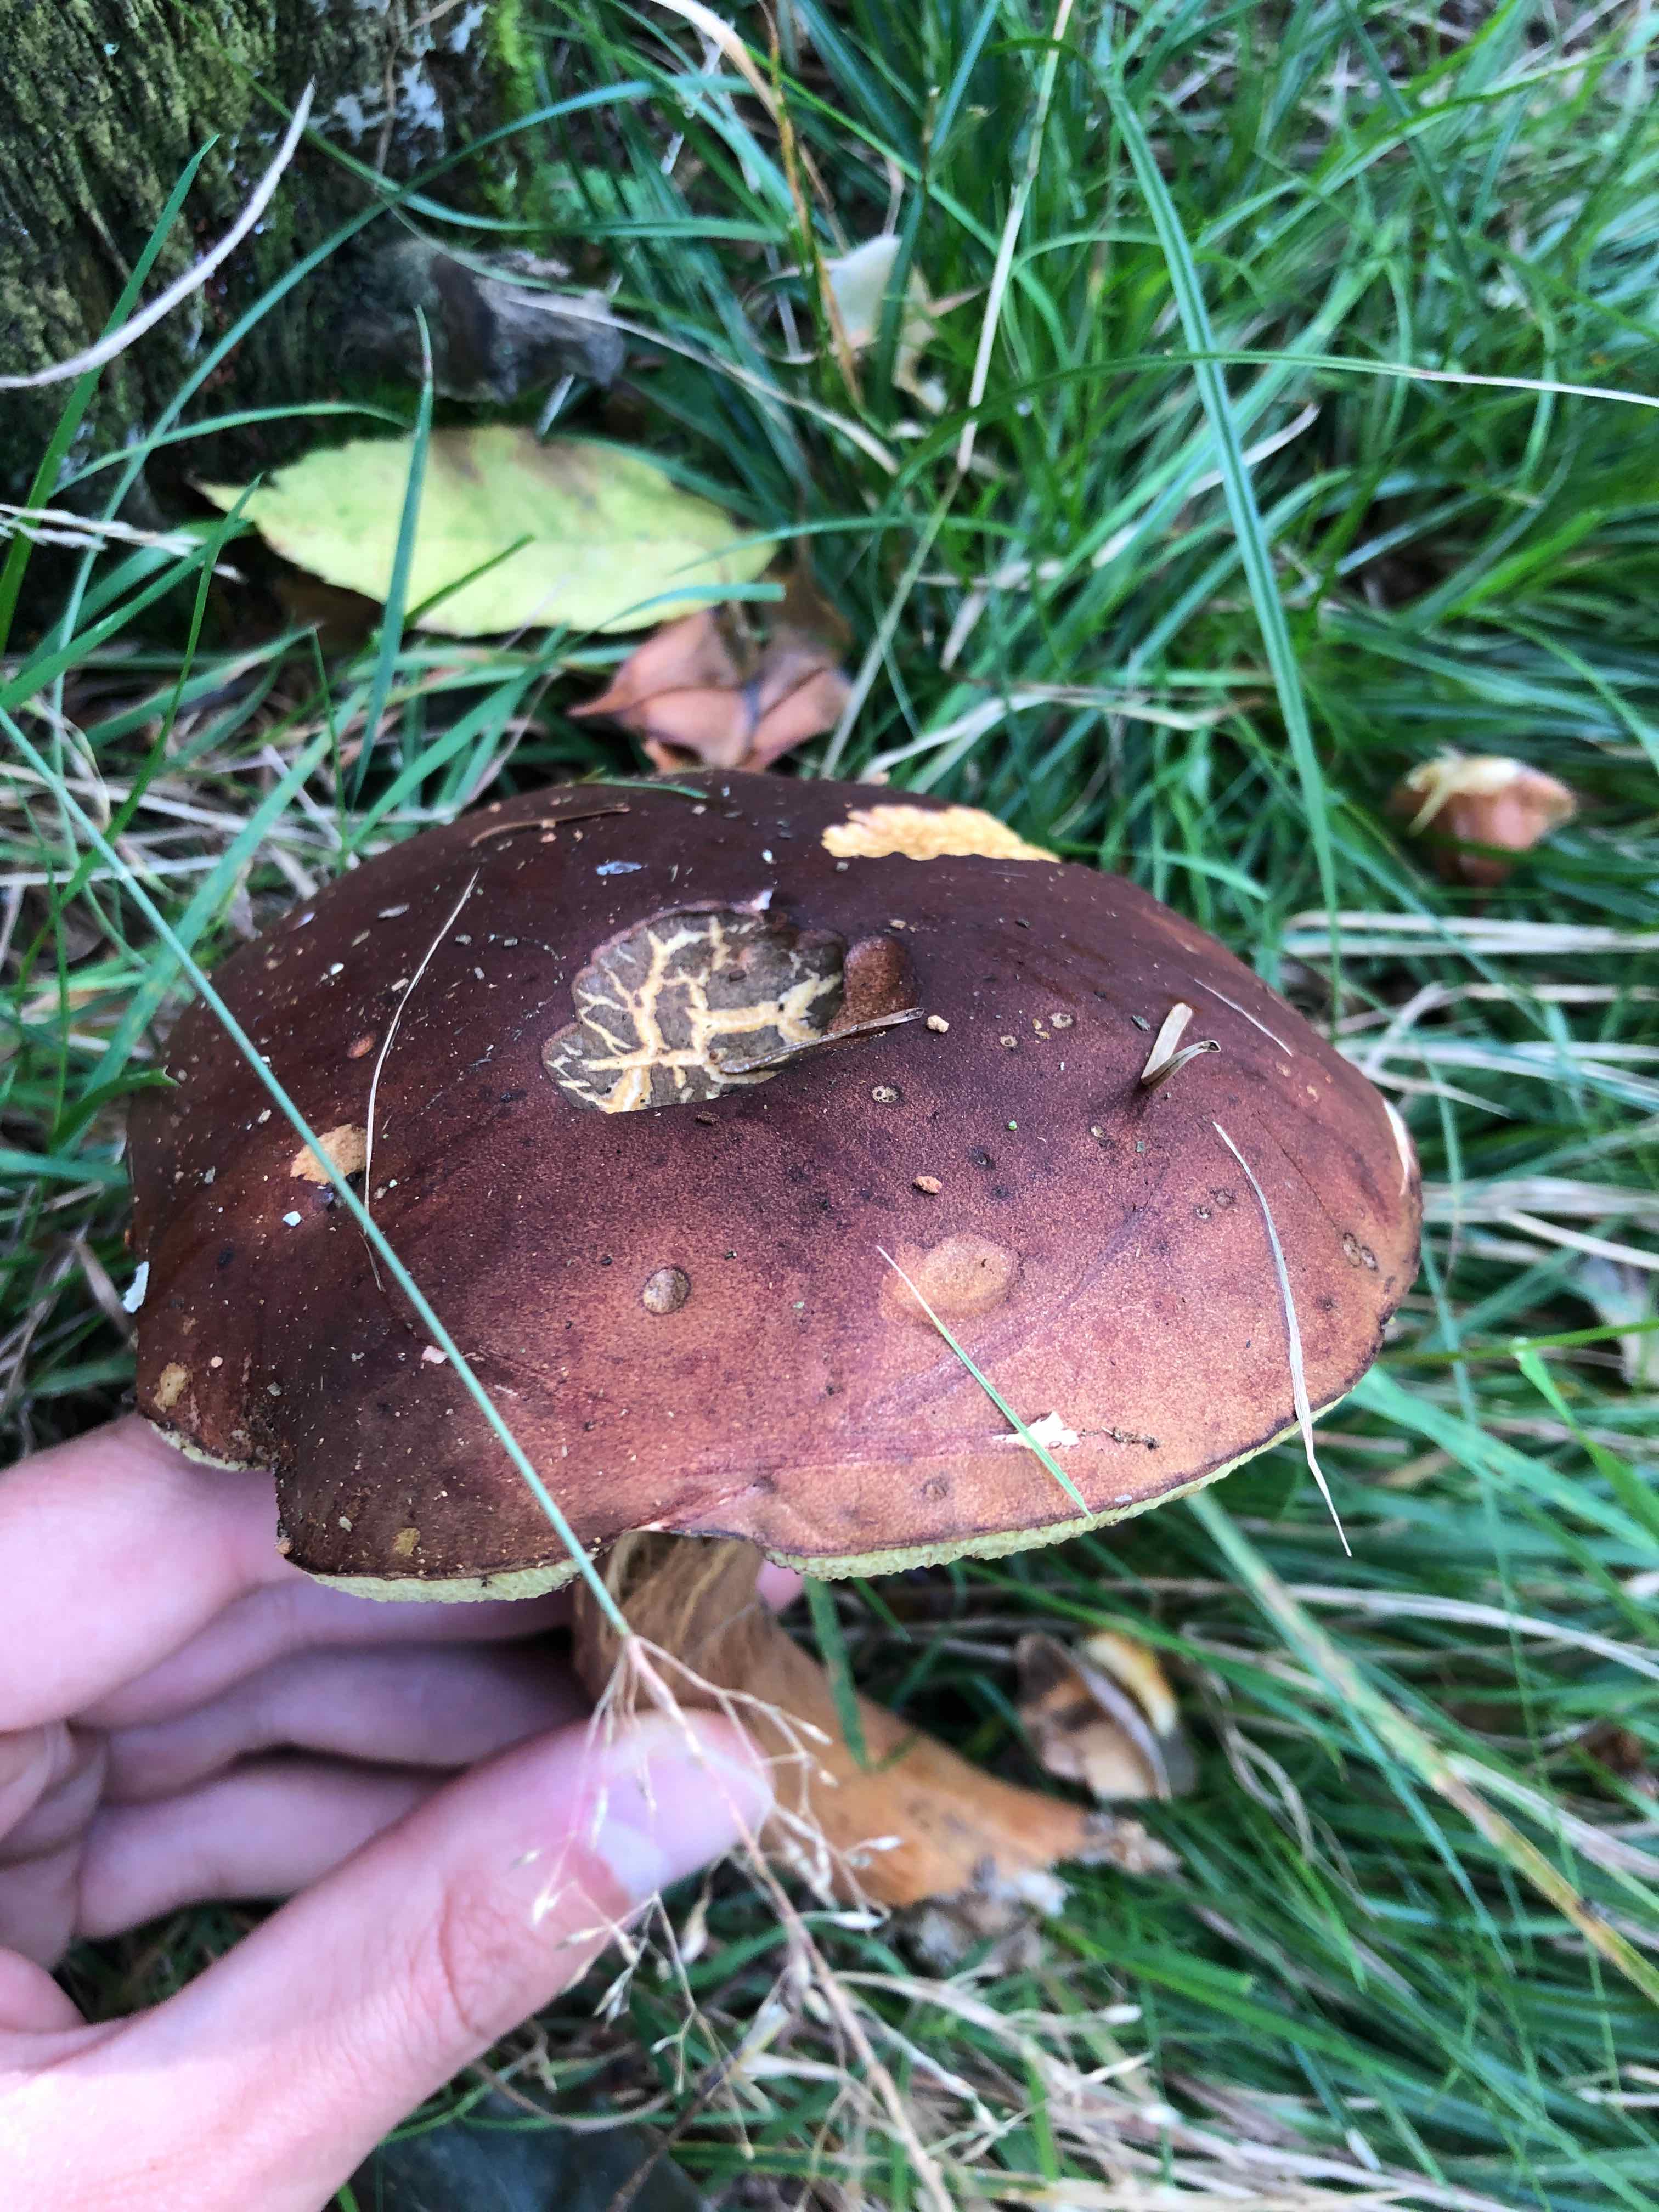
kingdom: Fungi
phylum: Basidiomycota
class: Agaricomycetes
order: Boletales
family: Boletaceae
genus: Imleria
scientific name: Imleria badia
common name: brunstokket rørhat
